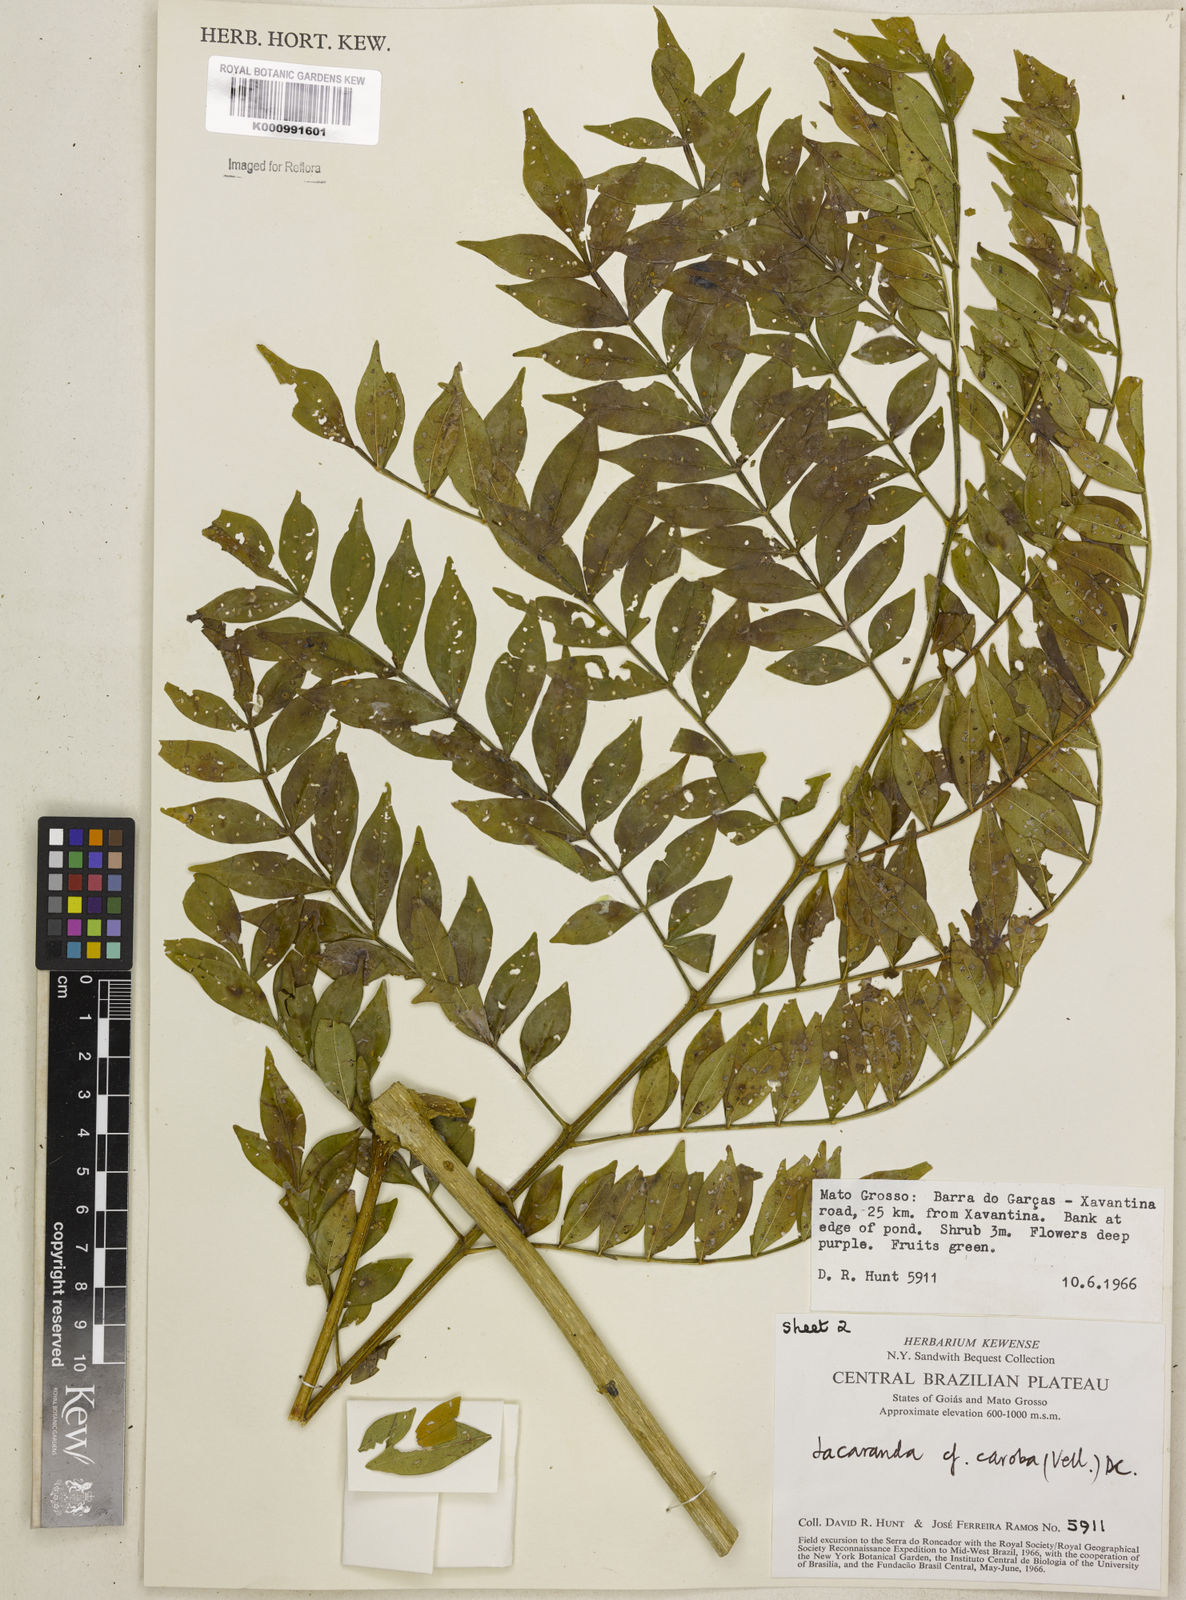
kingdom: Plantae
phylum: Tracheophyta
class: Magnoliopsida
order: Lamiales
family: Bignoniaceae
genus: Jacaranda
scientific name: Jacaranda caroba
